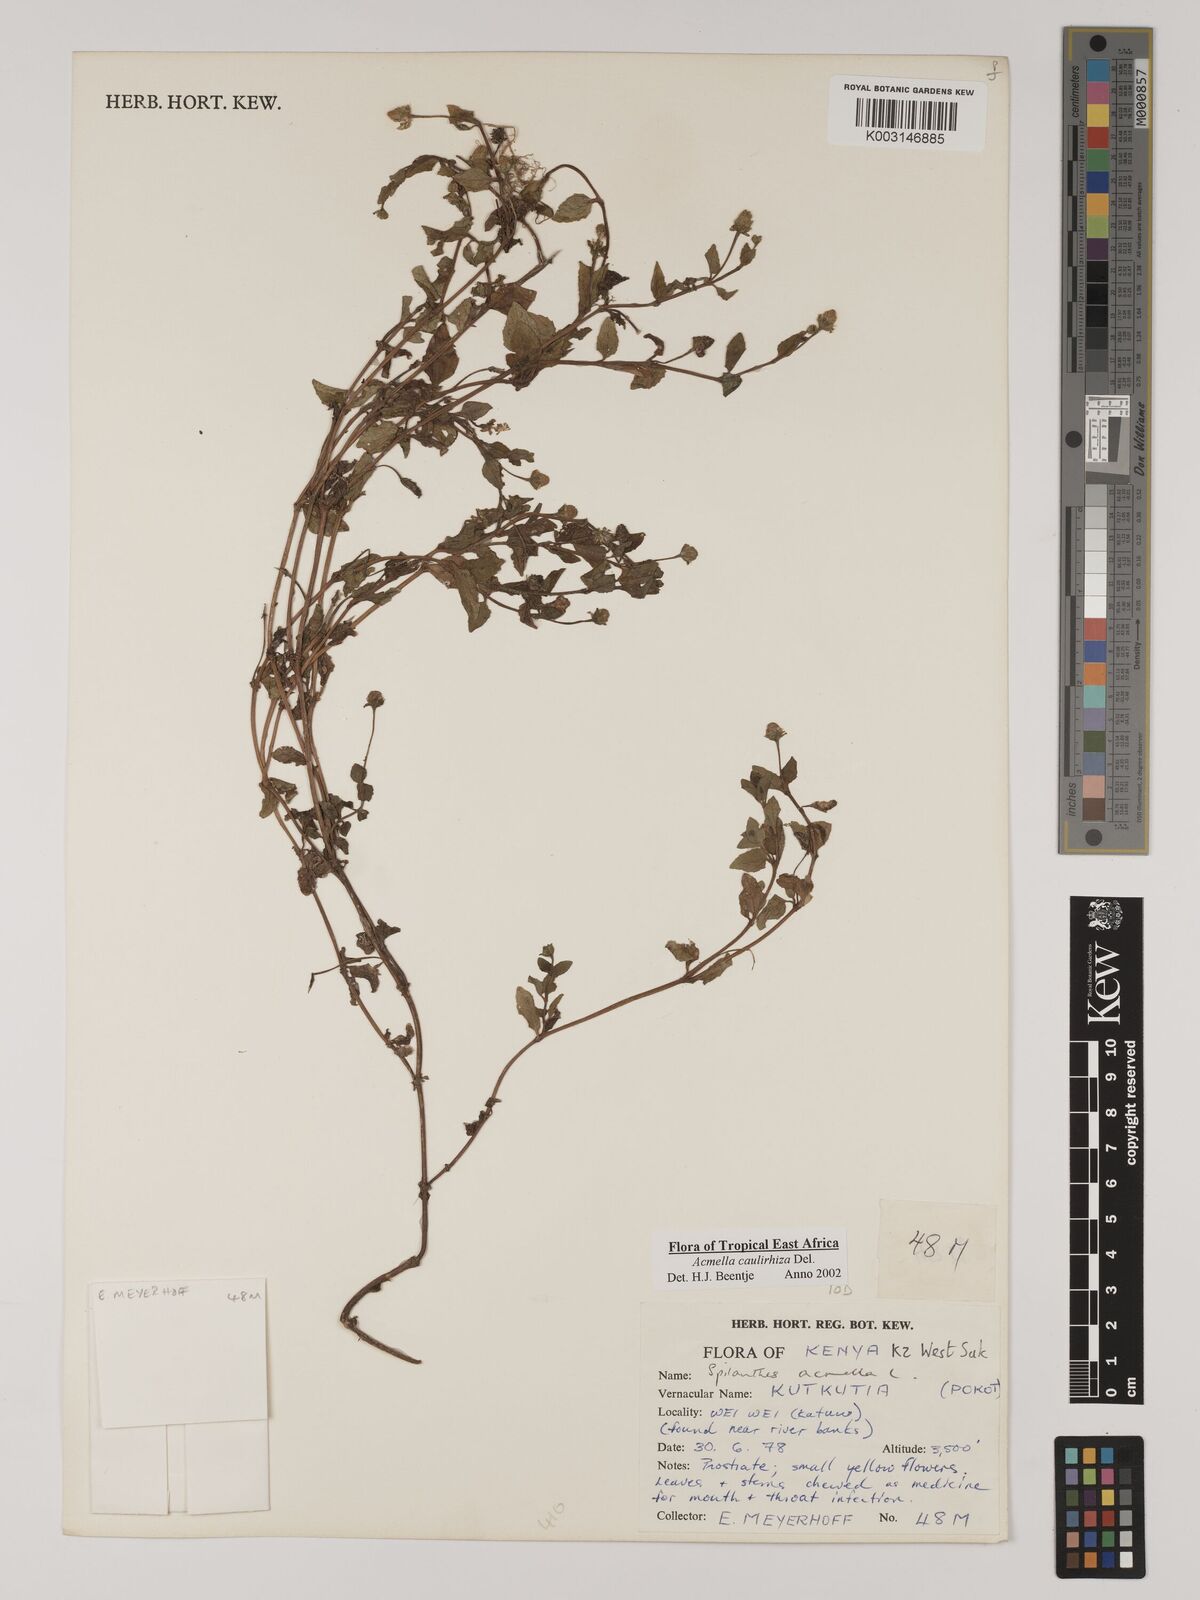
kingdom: Plantae
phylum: Tracheophyta
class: Magnoliopsida
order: Asterales
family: Asteraceae
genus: Acmella
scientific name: Acmella caulirhiza
